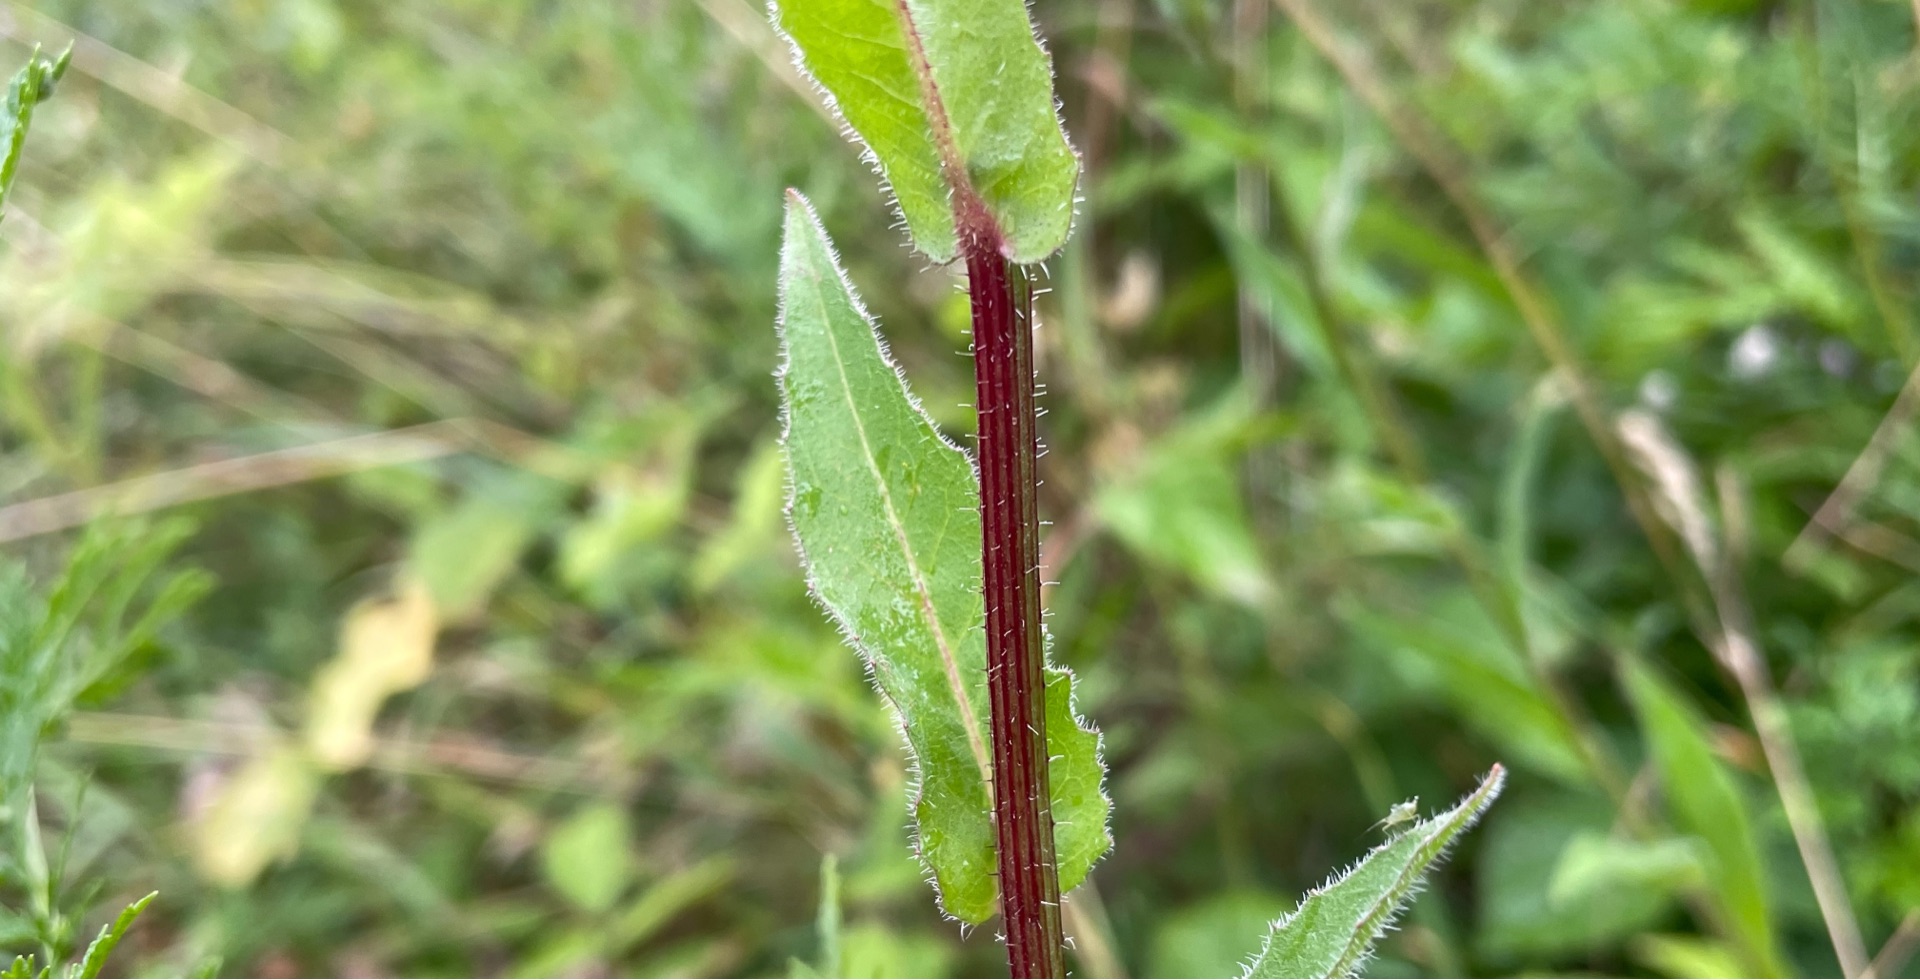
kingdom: Plantae
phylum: Tracheophyta
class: Magnoliopsida
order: Asterales
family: Asteraceae
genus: Picris
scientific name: Picris hieracioides
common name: Ru bittermælk
